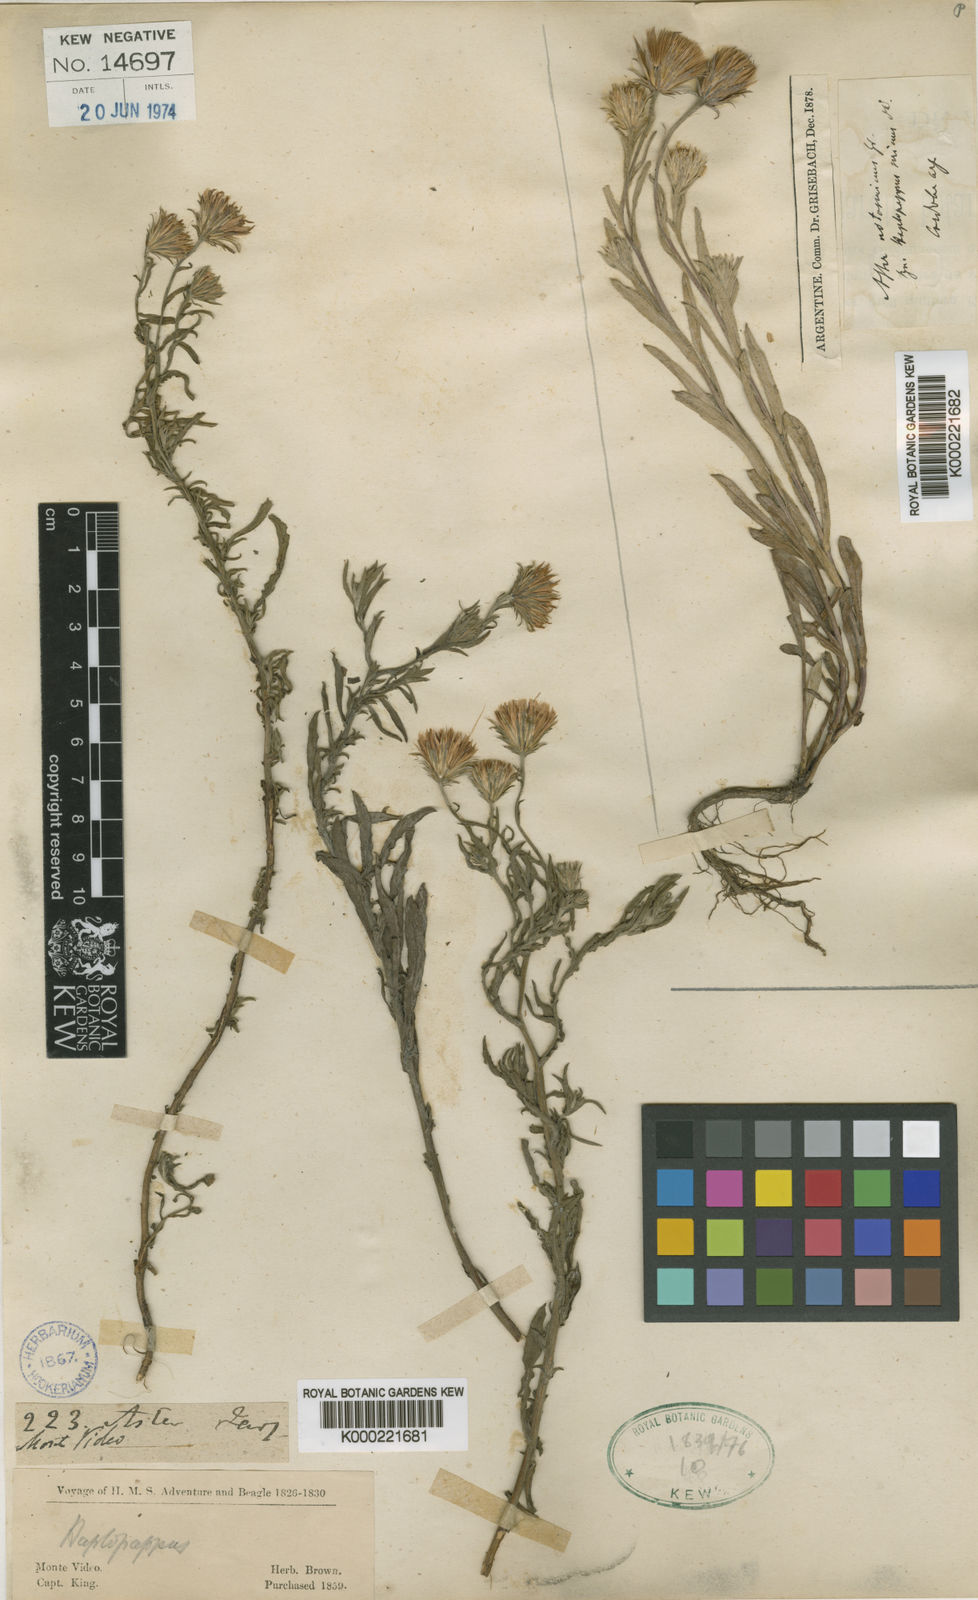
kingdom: Plantae
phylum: Tracheophyta
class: Magnoliopsida
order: Asterales
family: Asteraceae
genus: Noticastrum
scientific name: Noticastrum sericeum
